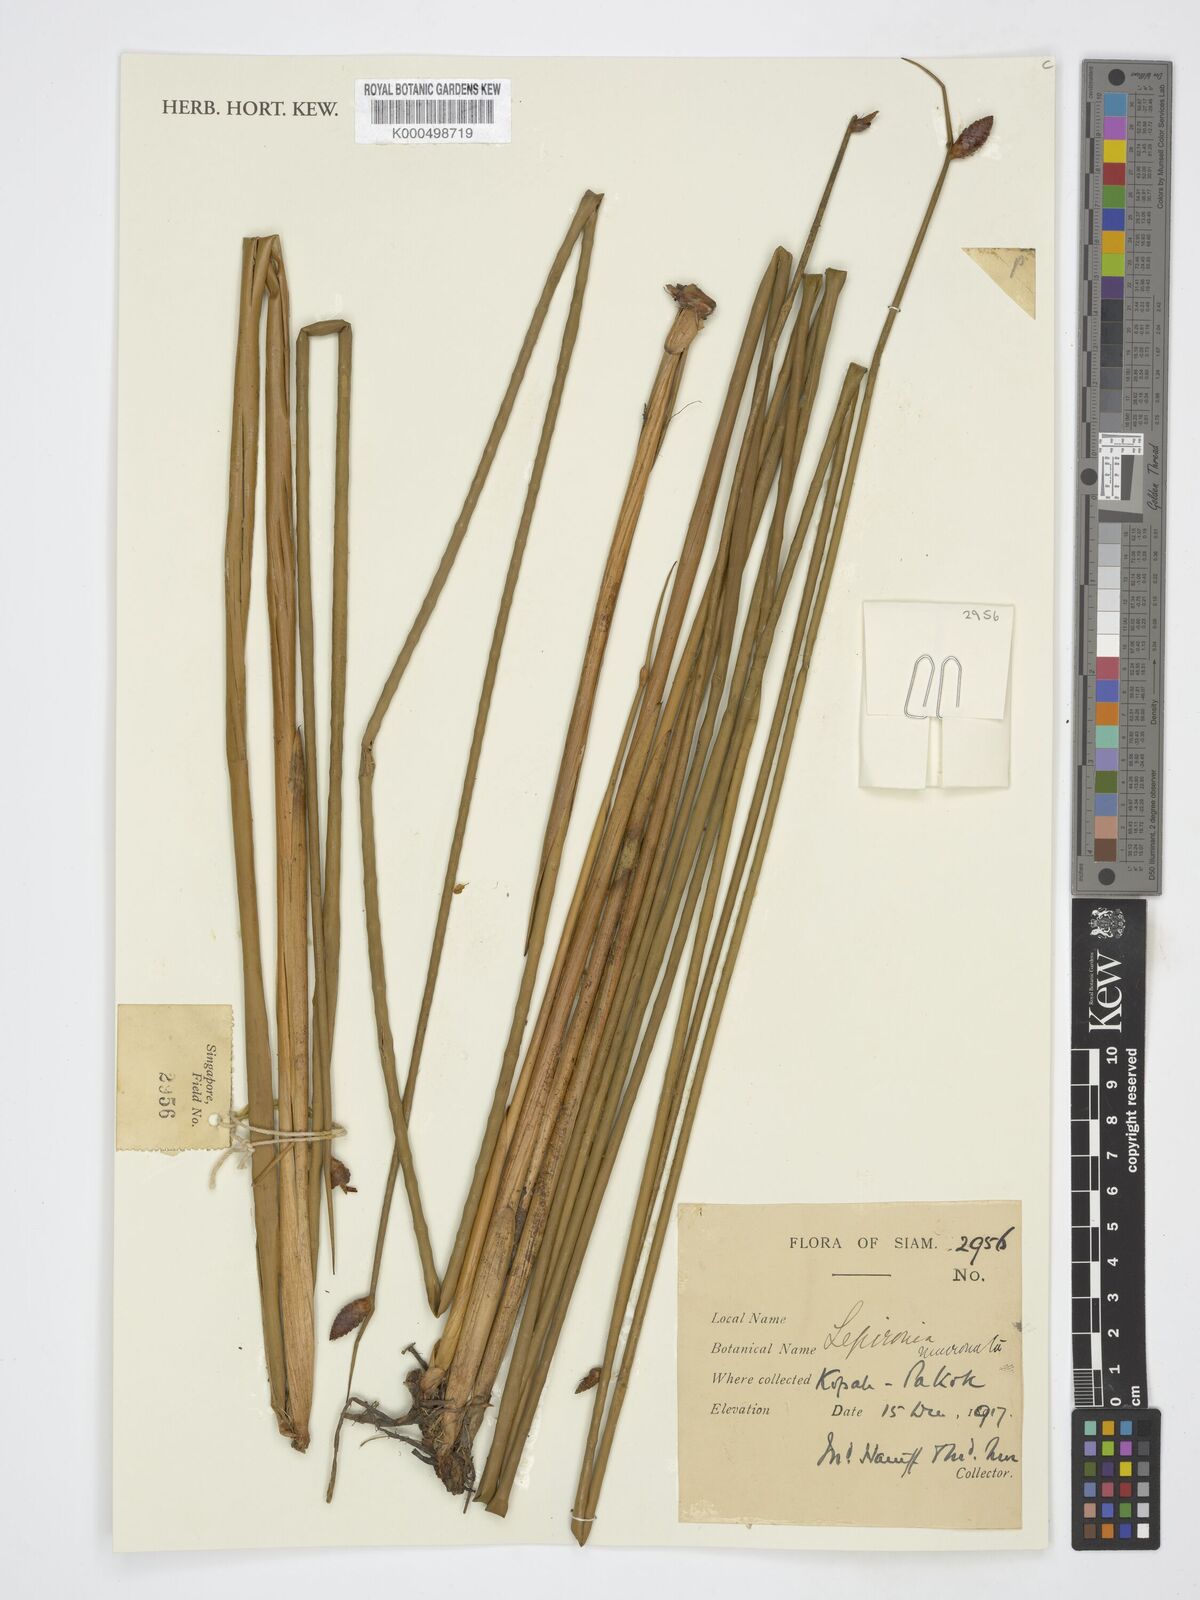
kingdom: Plantae
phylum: Tracheophyta
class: Liliopsida
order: Poales
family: Cyperaceae
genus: Lepironia
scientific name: Lepironia articulata
